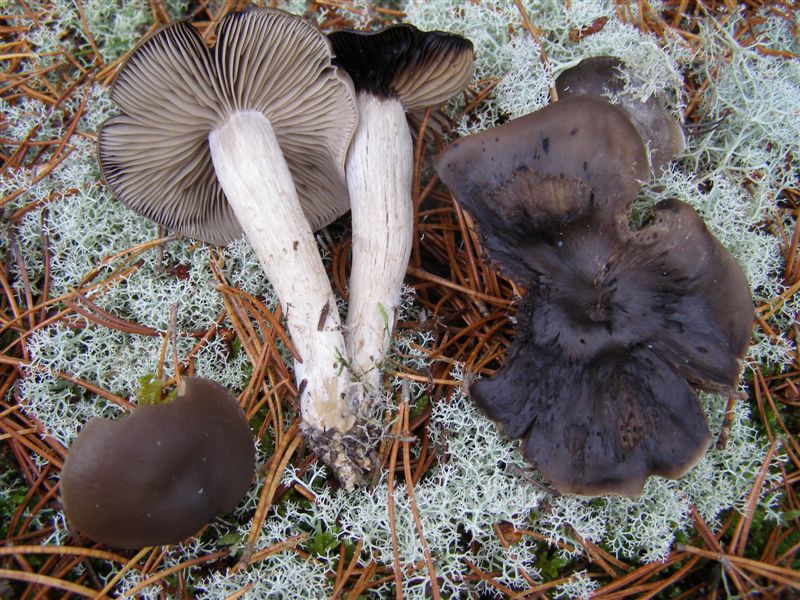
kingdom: Fungi
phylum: Basidiomycota
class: Agaricomycetes
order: Agaricales
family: Lyophyllaceae
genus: Lyophyllum
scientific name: Lyophyllum semitale
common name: sværtende gråblad
